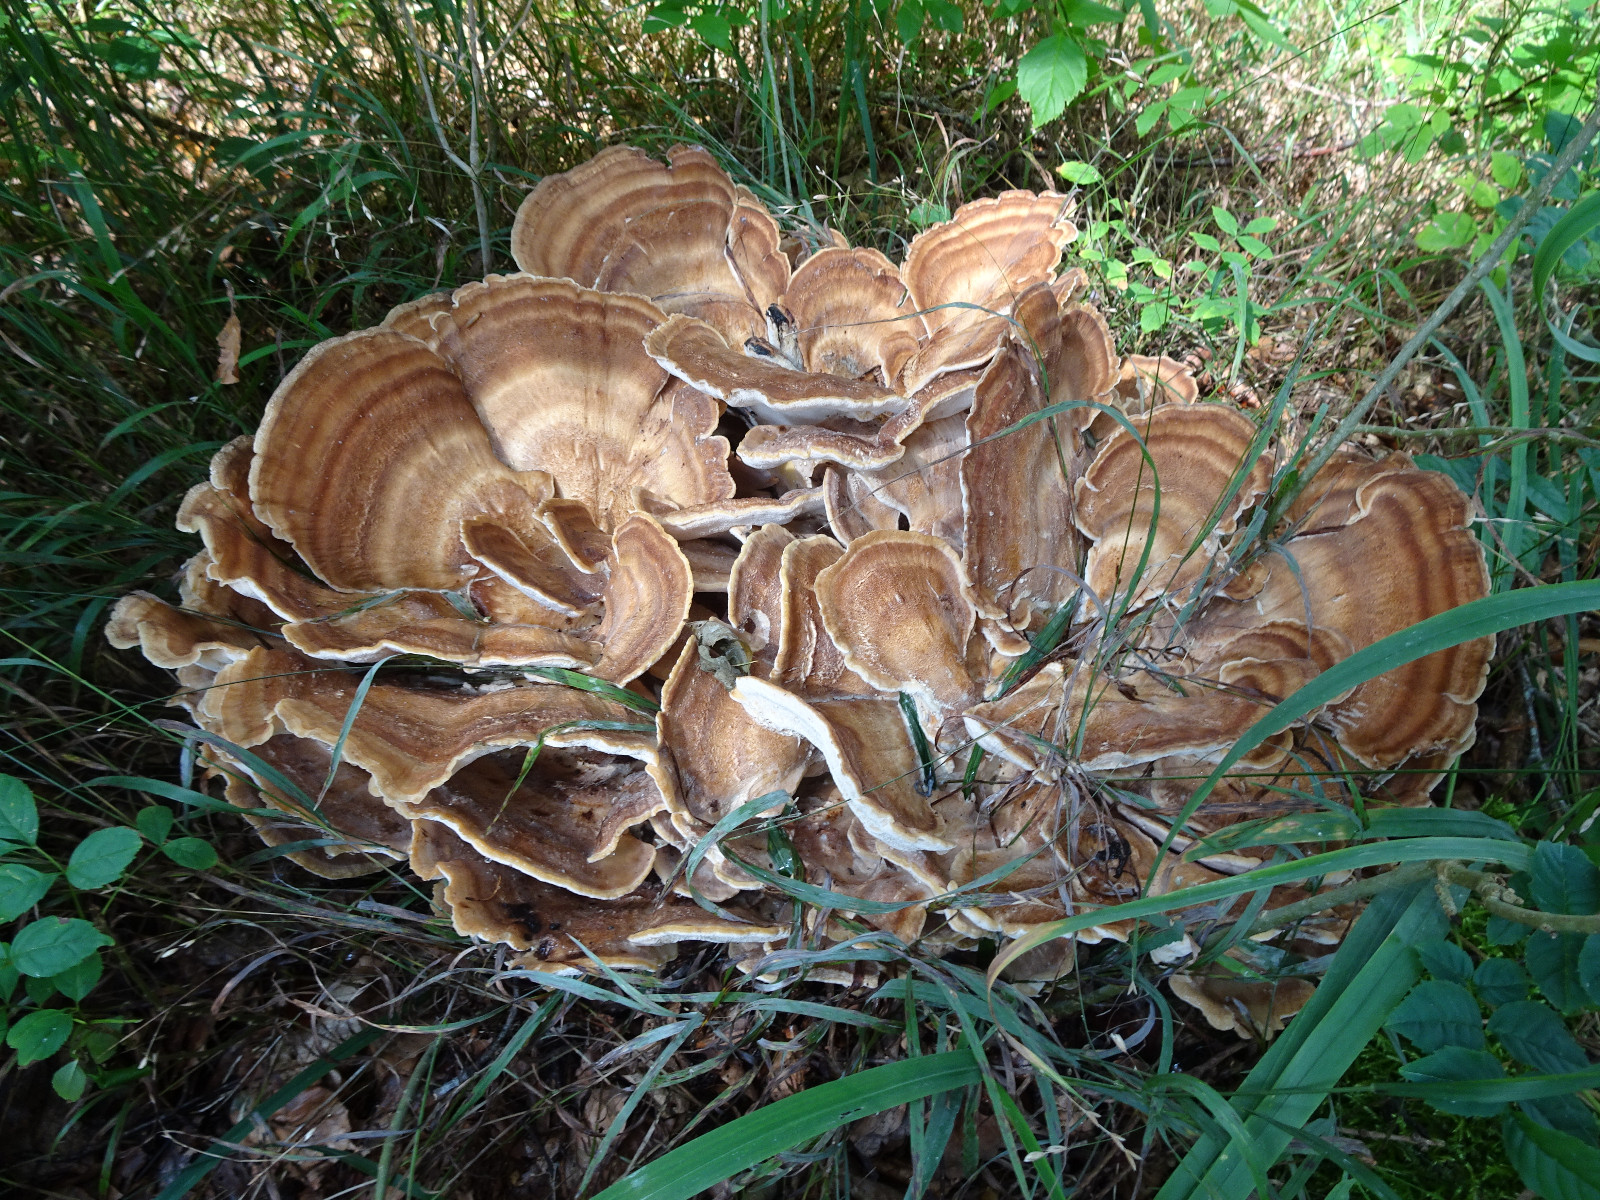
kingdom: Fungi
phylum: Basidiomycota
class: Agaricomycetes
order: Polyporales
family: Meripilaceae
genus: Meripilus
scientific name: Meripilus giganteus
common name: kæmpeporesvamp
